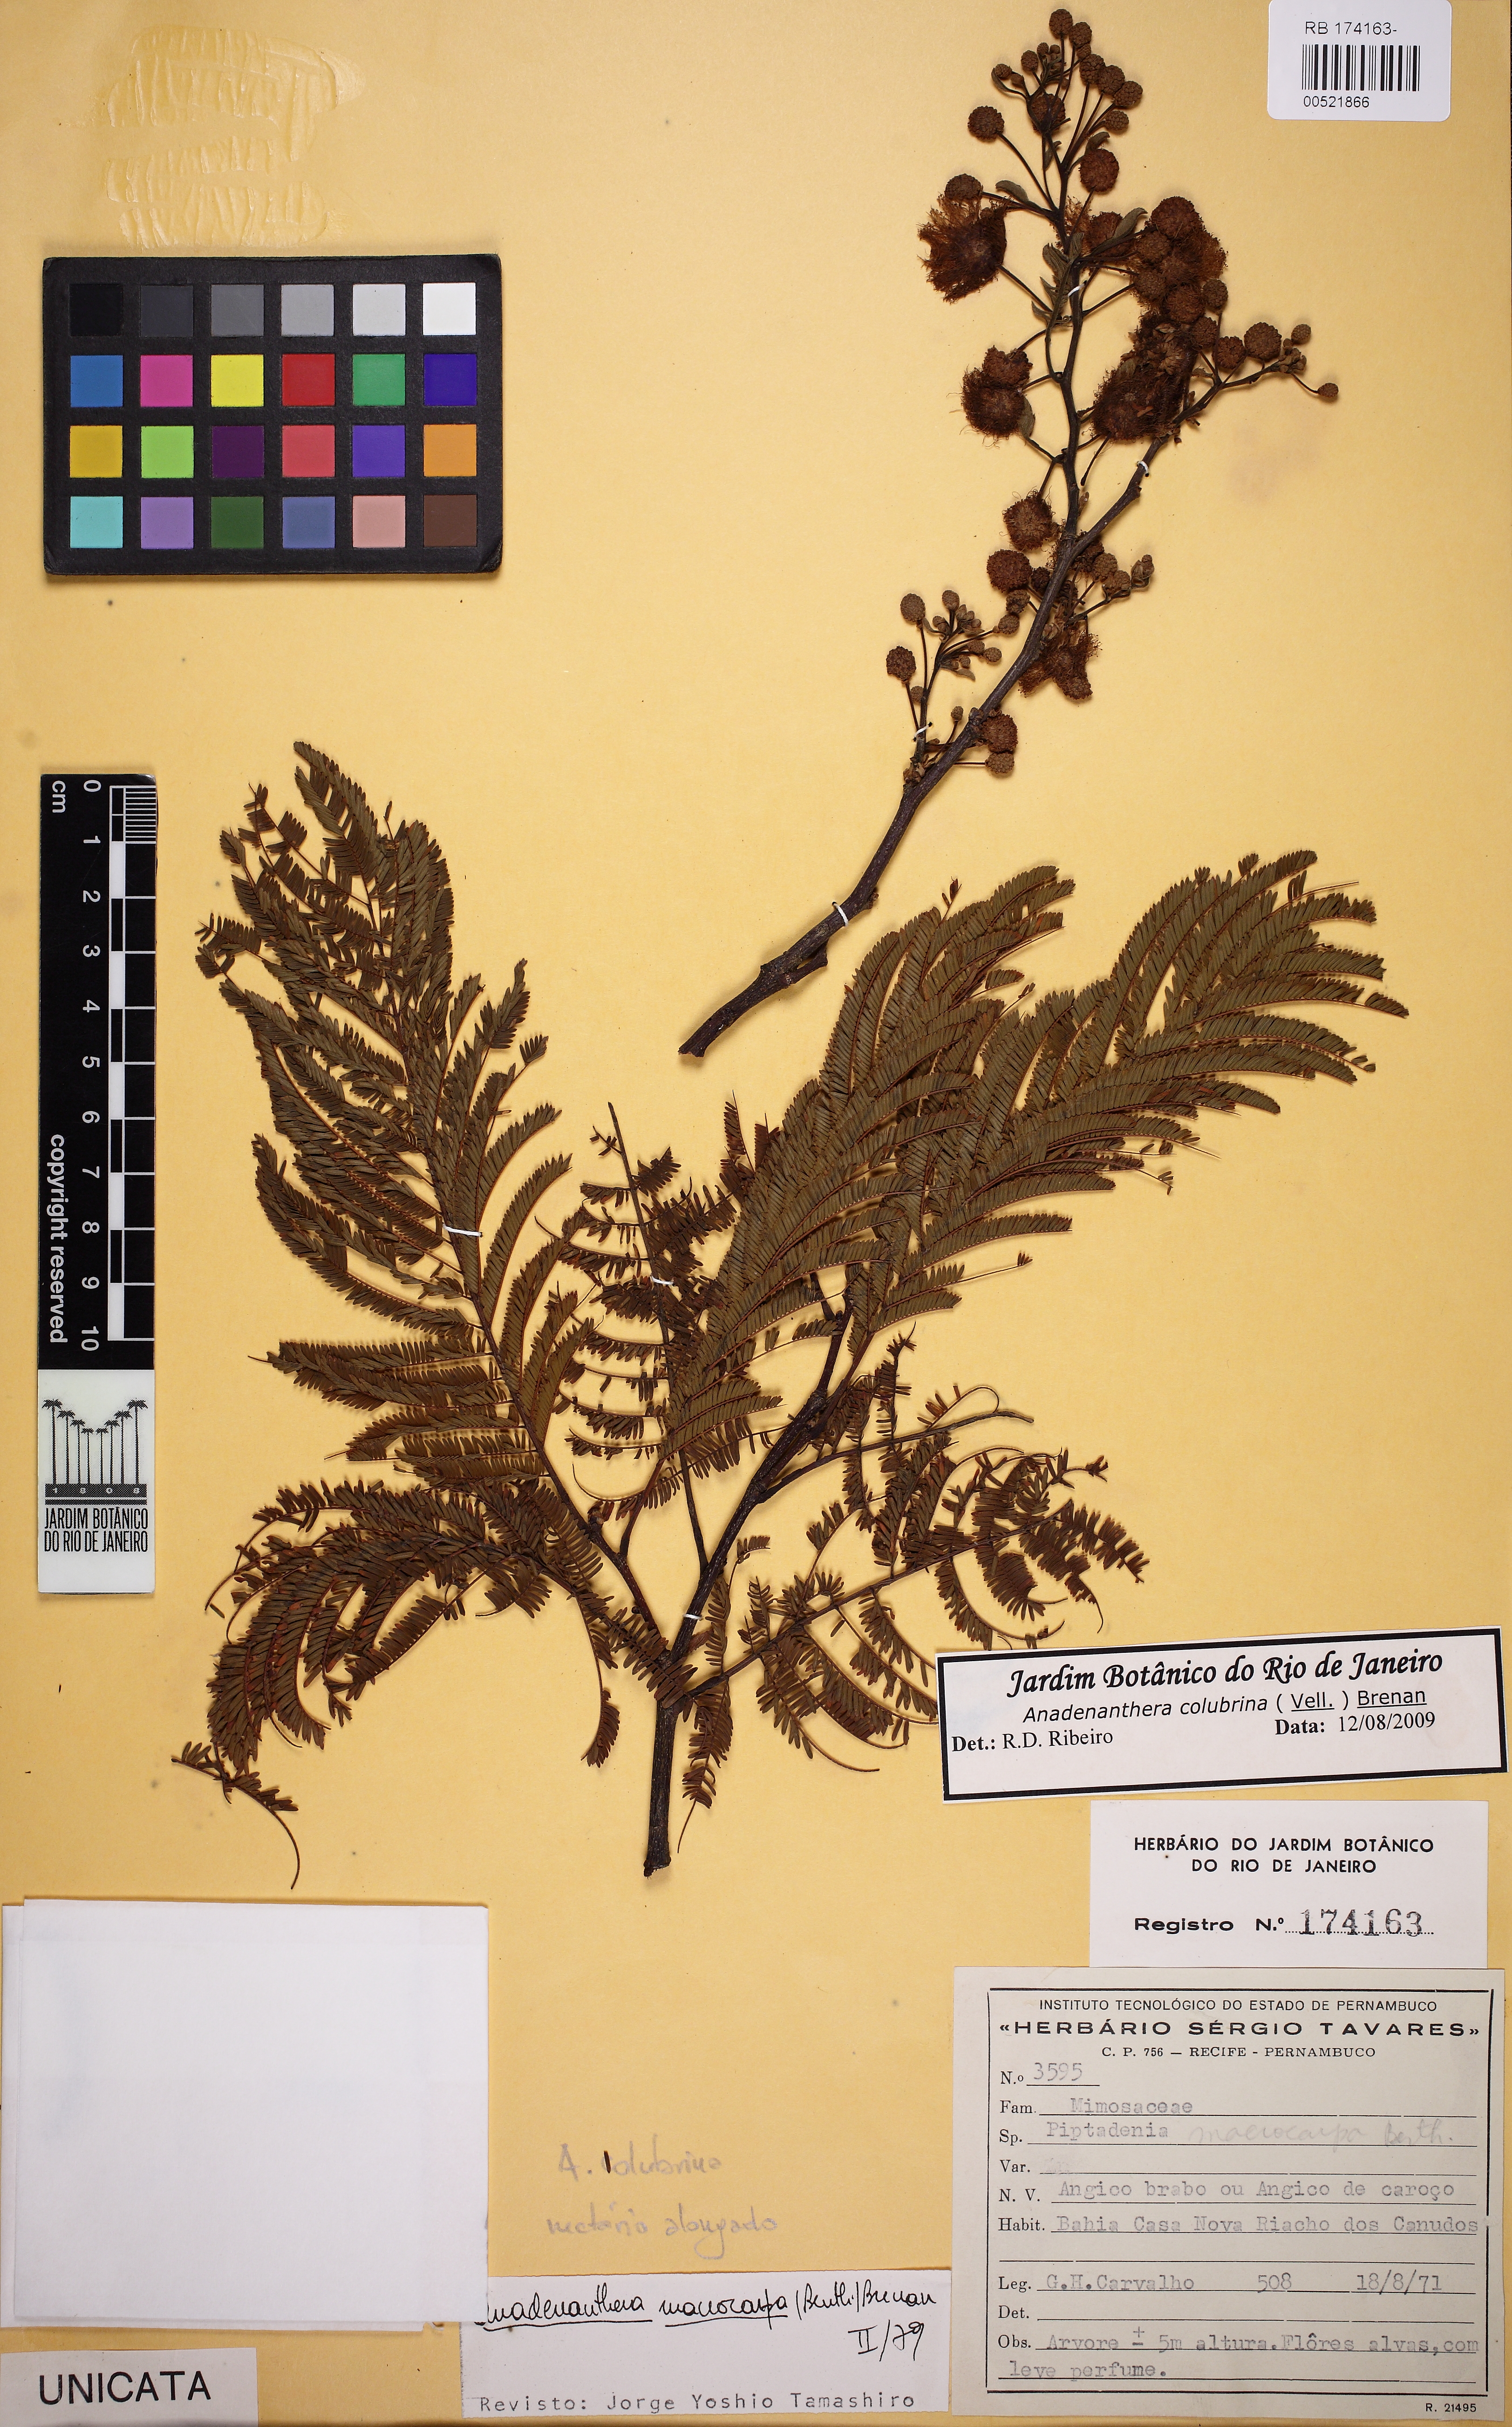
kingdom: Plantae
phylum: Tracheophyta
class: Magnoliopsida
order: Fabales
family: Fabaceae
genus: Anadenanthera
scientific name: Anadenanthera colubrina
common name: Curupay
